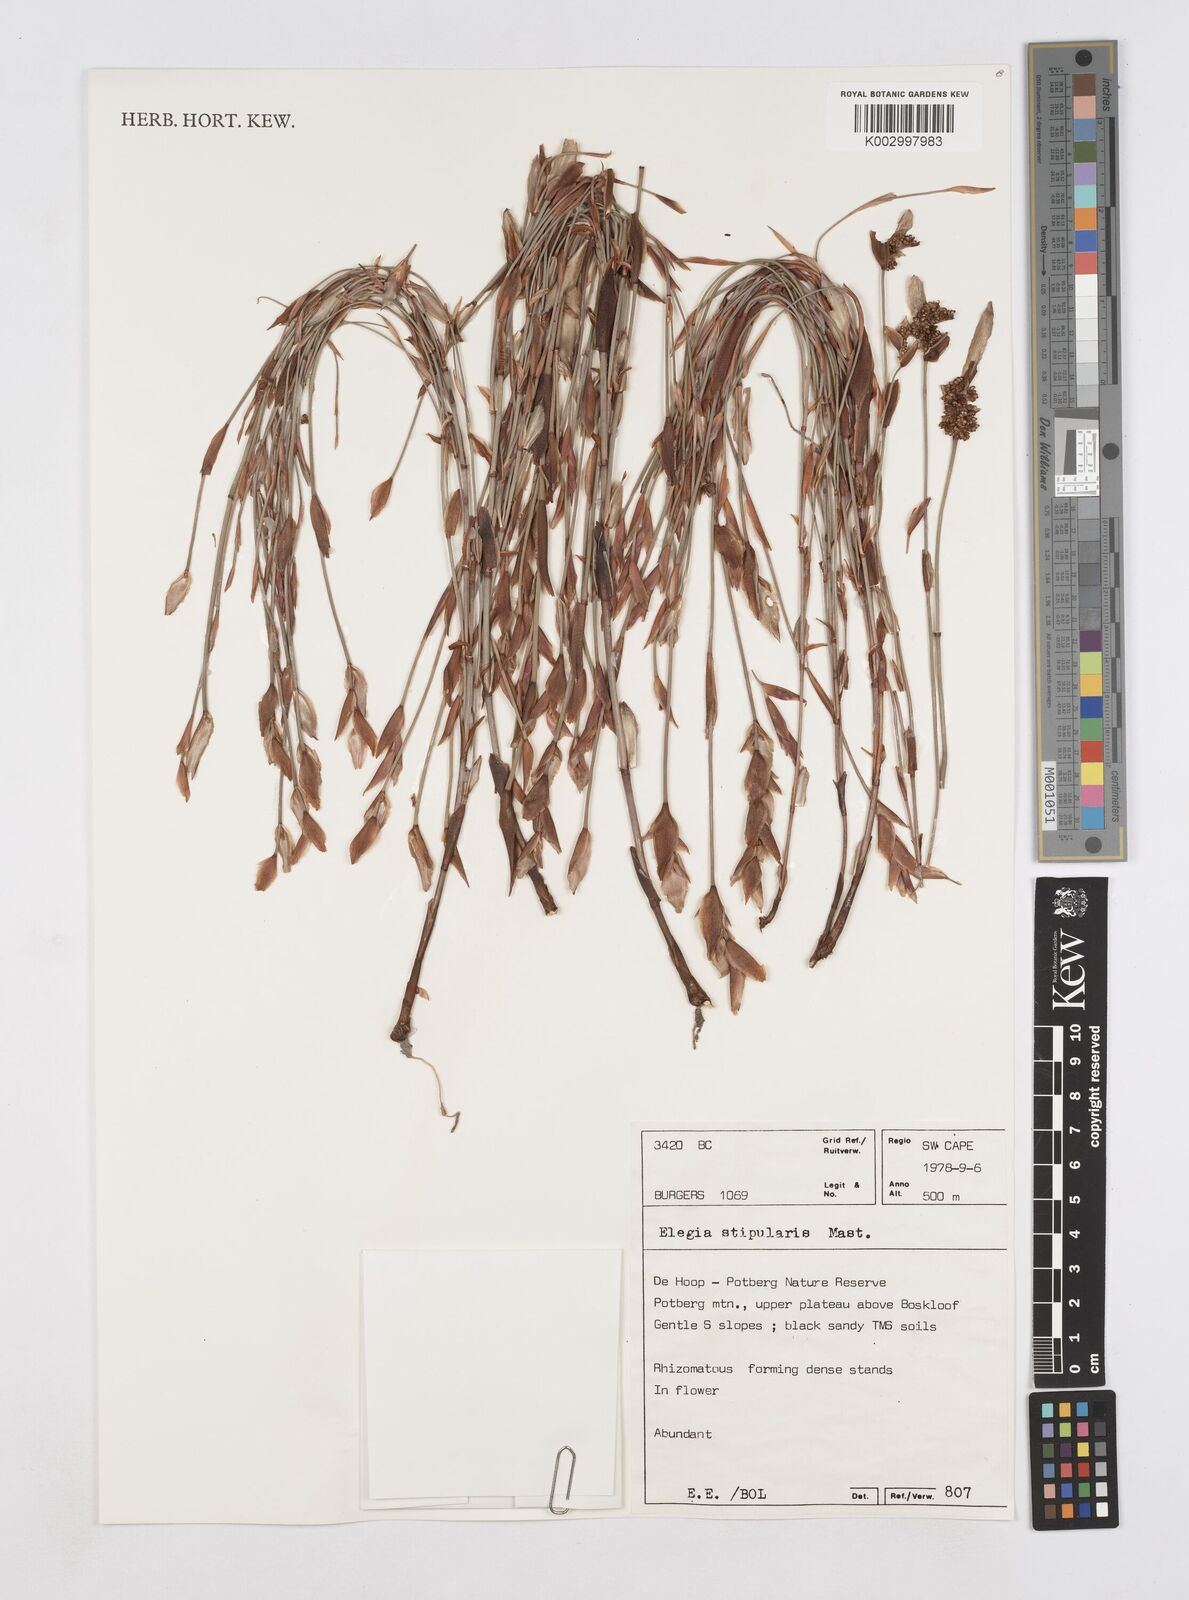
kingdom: Plantae
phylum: Tracheophyta
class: Liliopsida
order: Poales
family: Restionaceae
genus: Elegia
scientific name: Elegia stipularis
